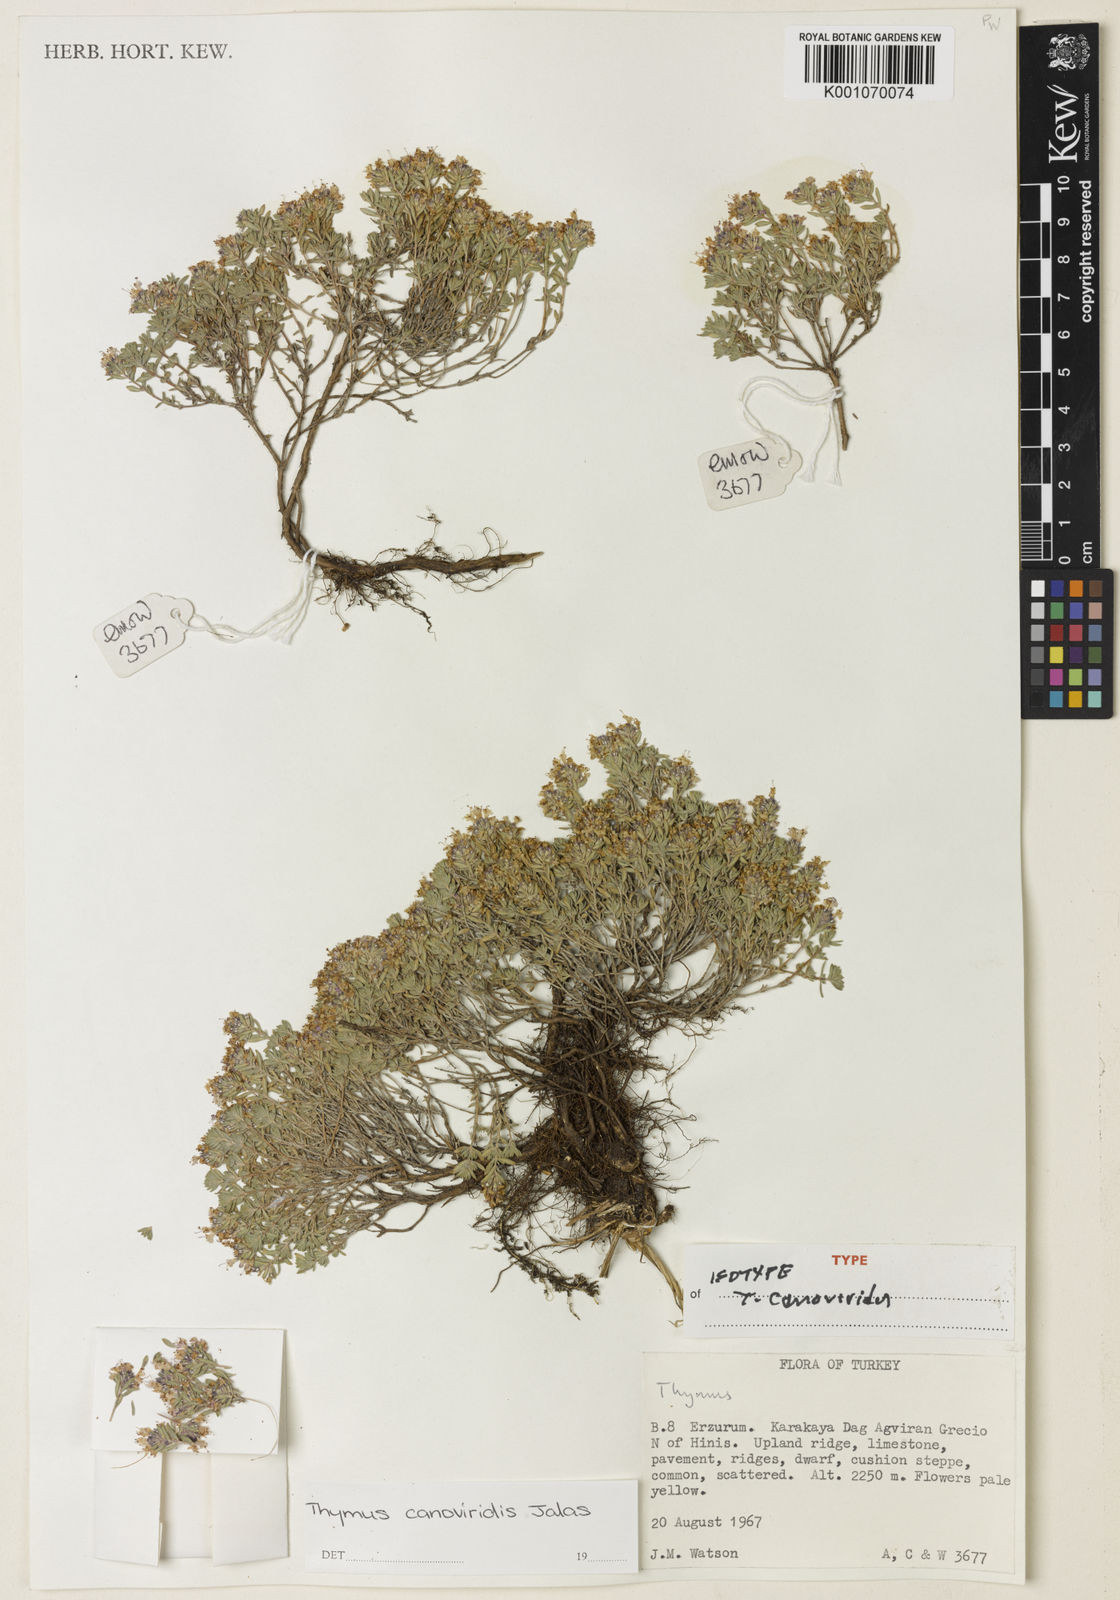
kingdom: Plantae
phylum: Tracheophyta
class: Magnoliopsida
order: Lamiales
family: Lamiaceae
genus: Thymus
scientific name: Thymus canoviridis
